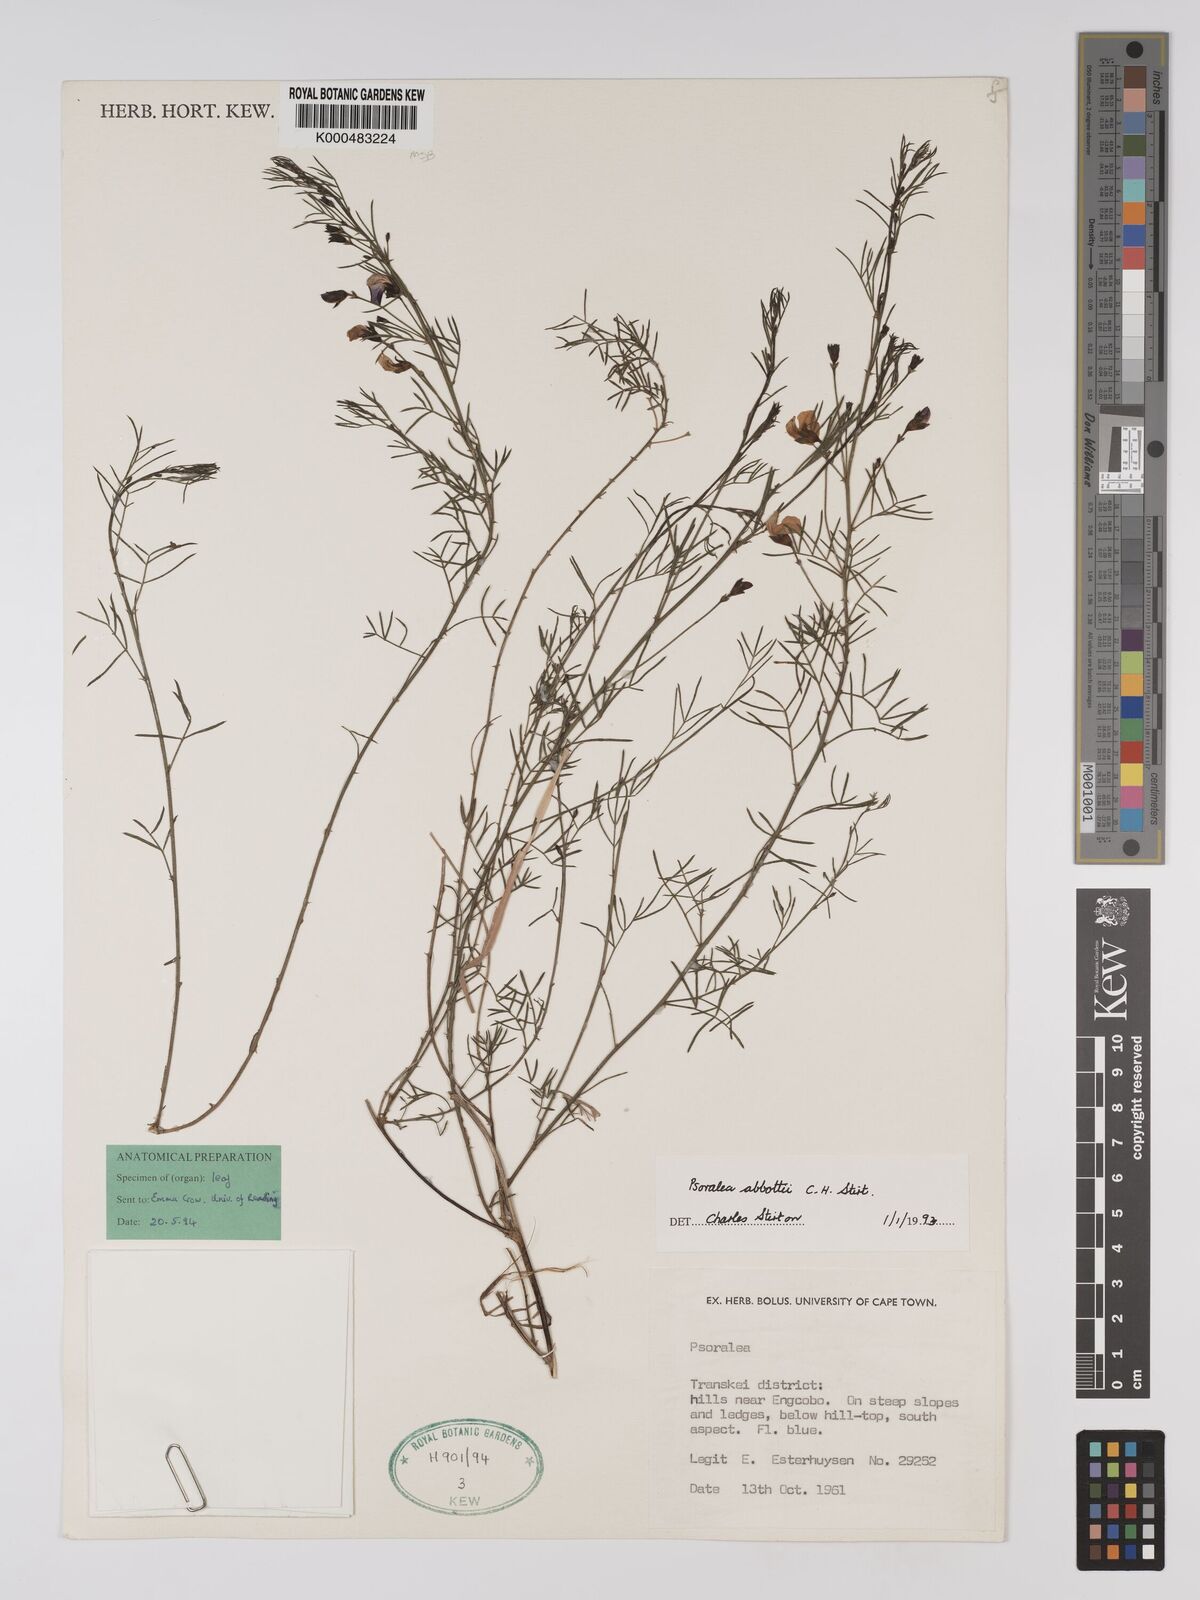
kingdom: Plantae
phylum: Tracheophyta
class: Magnoliopsida
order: Fabales
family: Fabaceae
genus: Psoralea
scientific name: Psoralea abbottii
